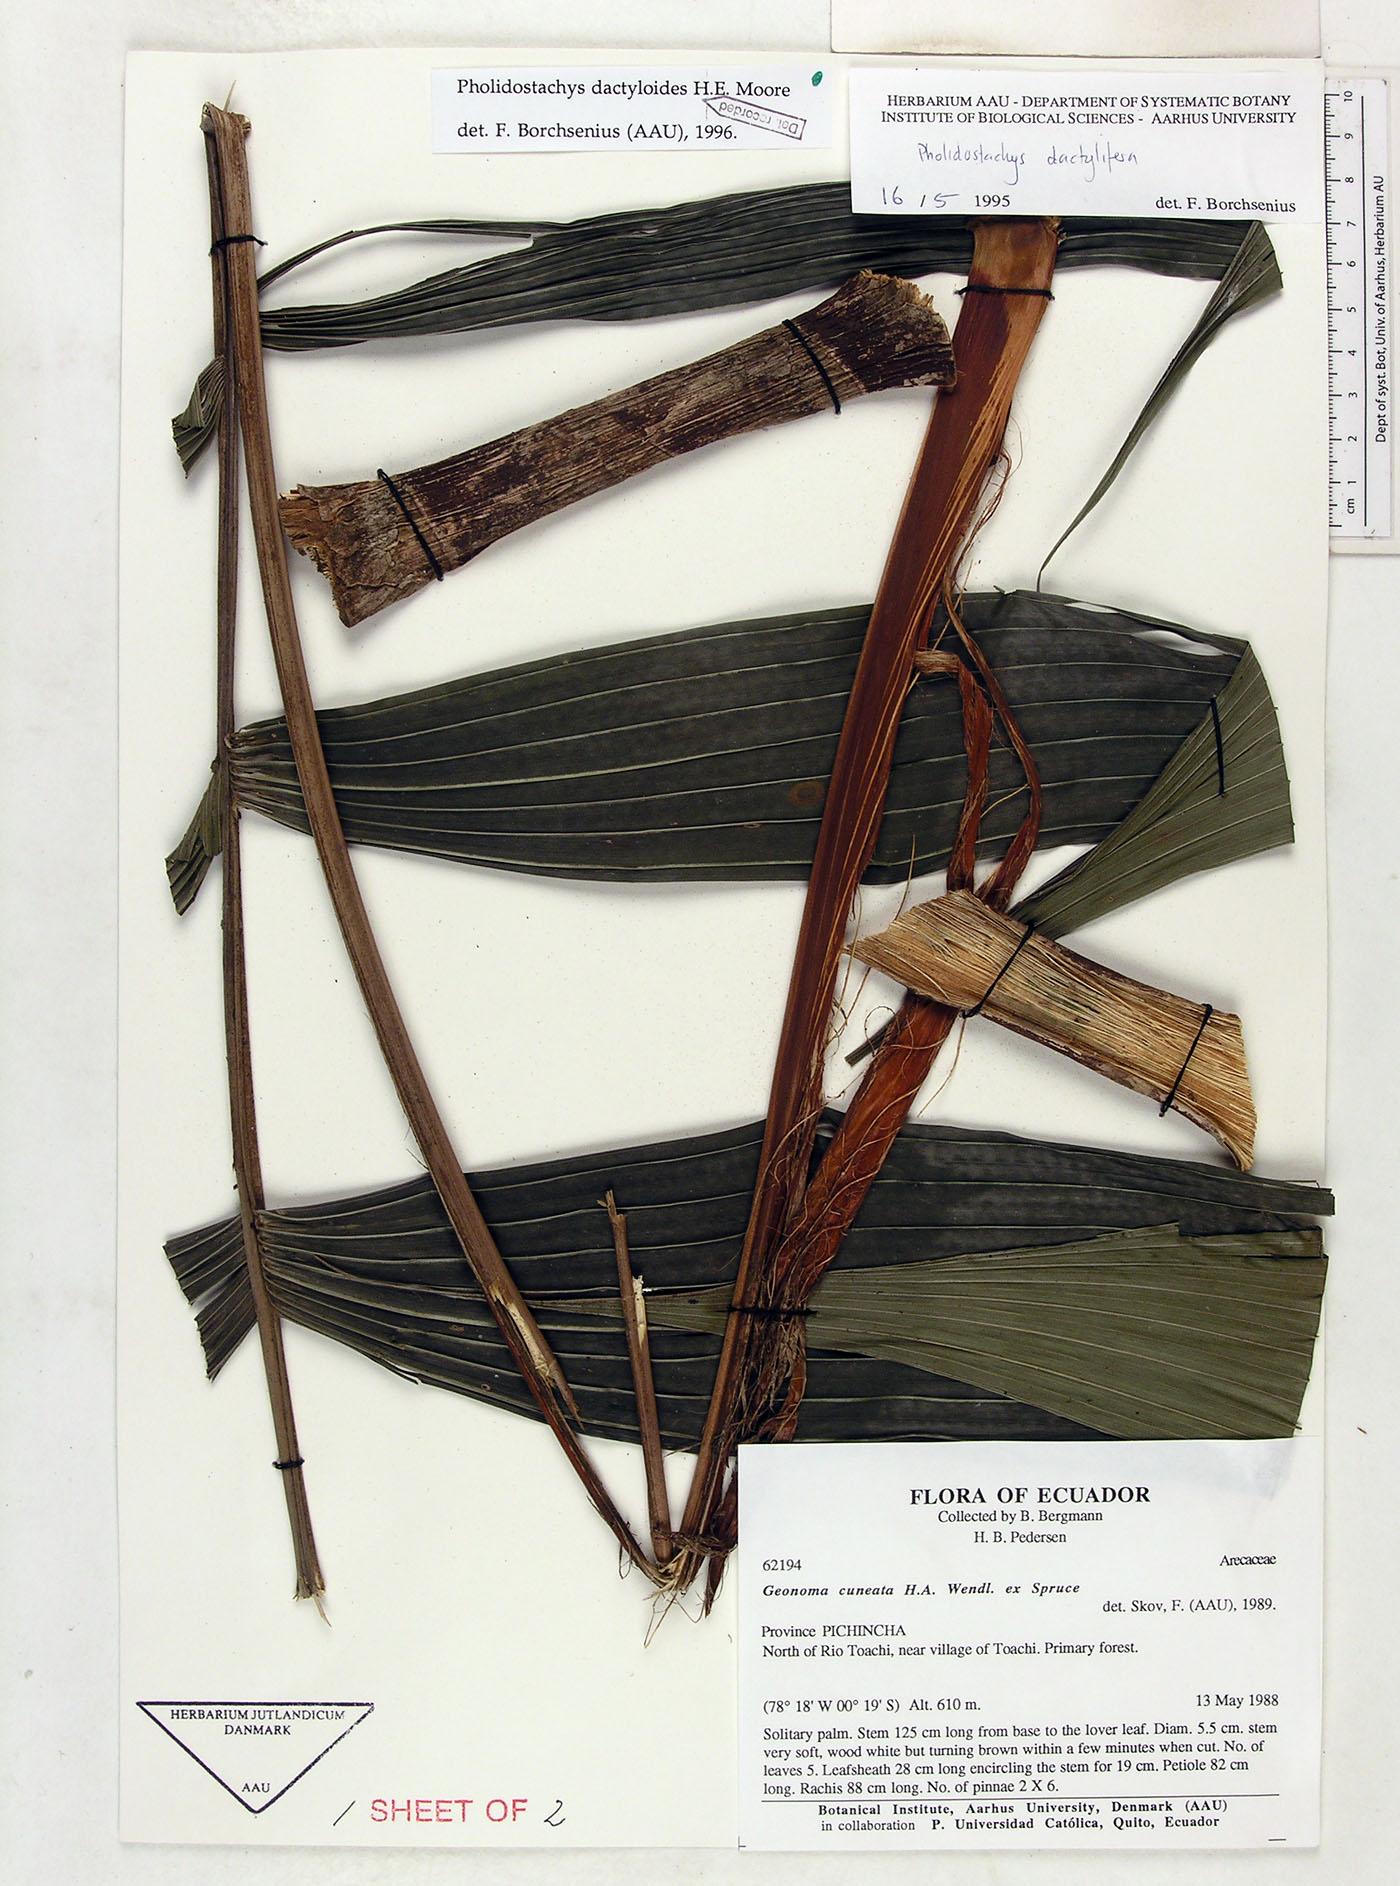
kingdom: Plantae
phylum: Tracheophyta
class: Liliopsida
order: Arecales
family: Arecaceae
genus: Pholidostachys
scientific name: Pholidostachys dactyloides
